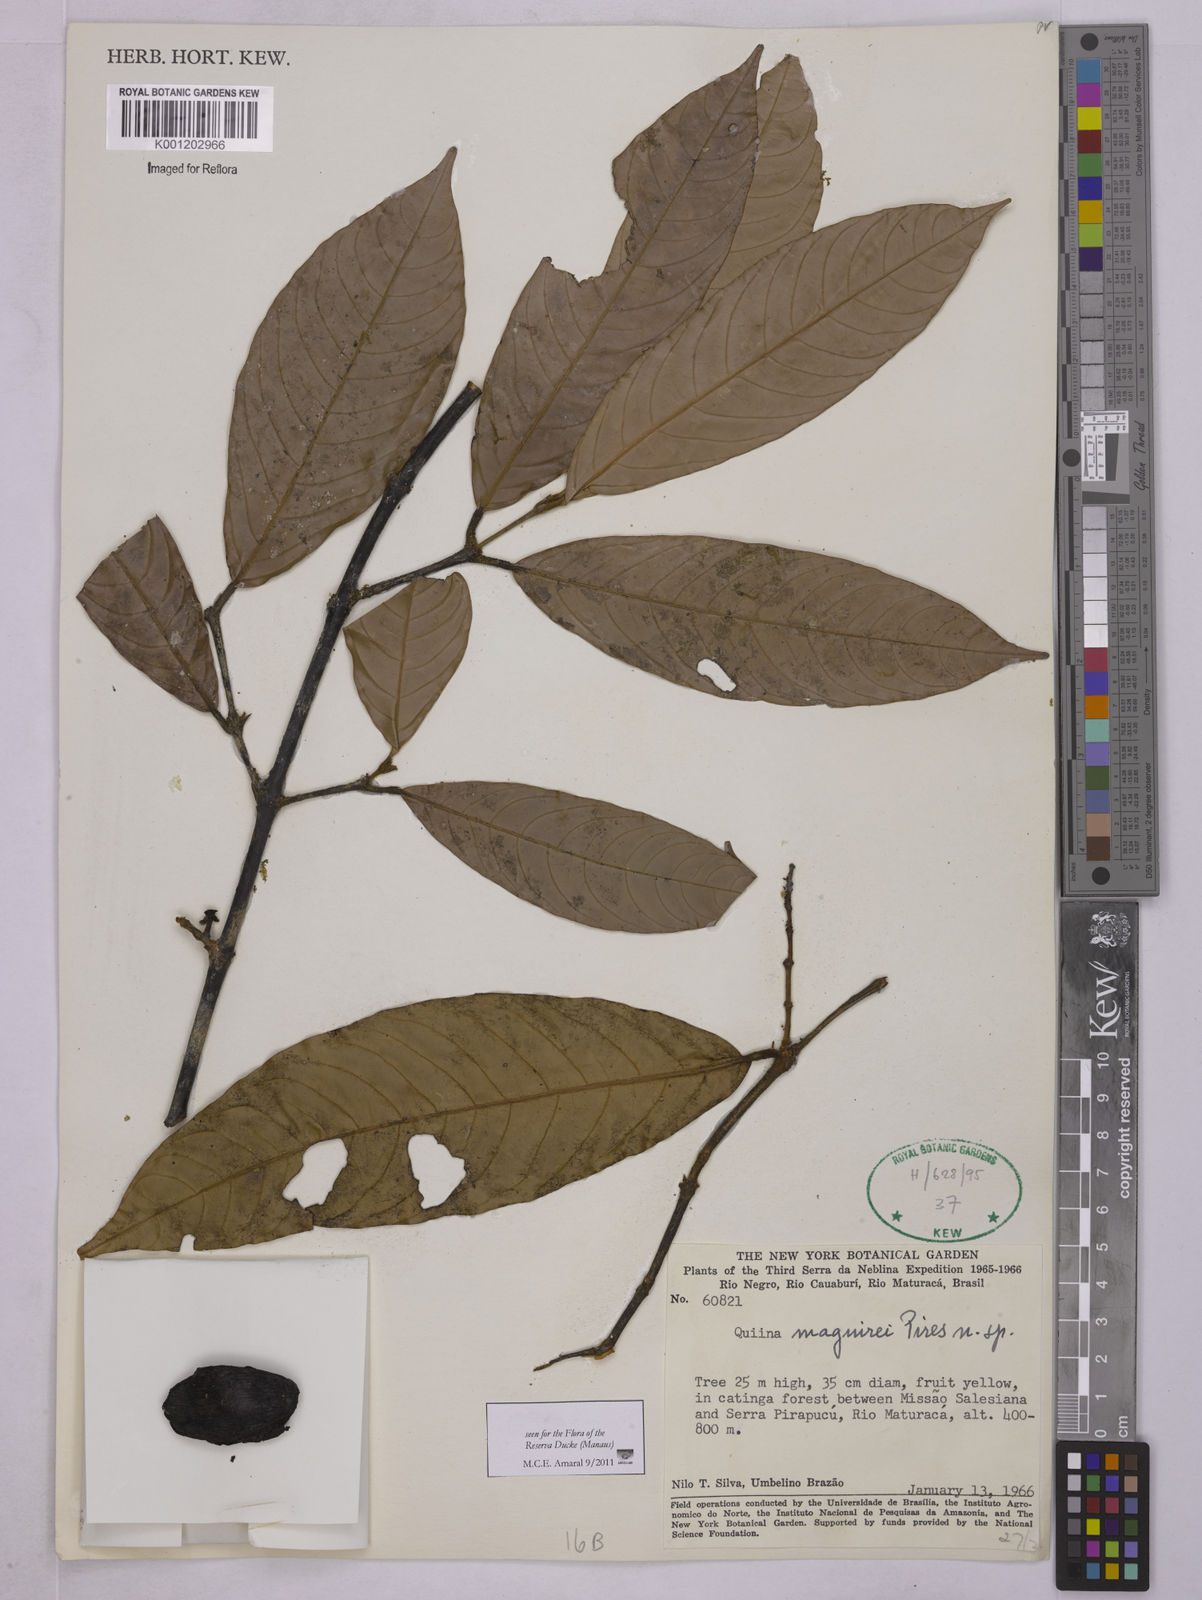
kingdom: Plantae
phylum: Tracheophyta
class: Magnoliopsida
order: Malpighiales
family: Quiinaceae
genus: Quiina
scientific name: Quiina maguirei
